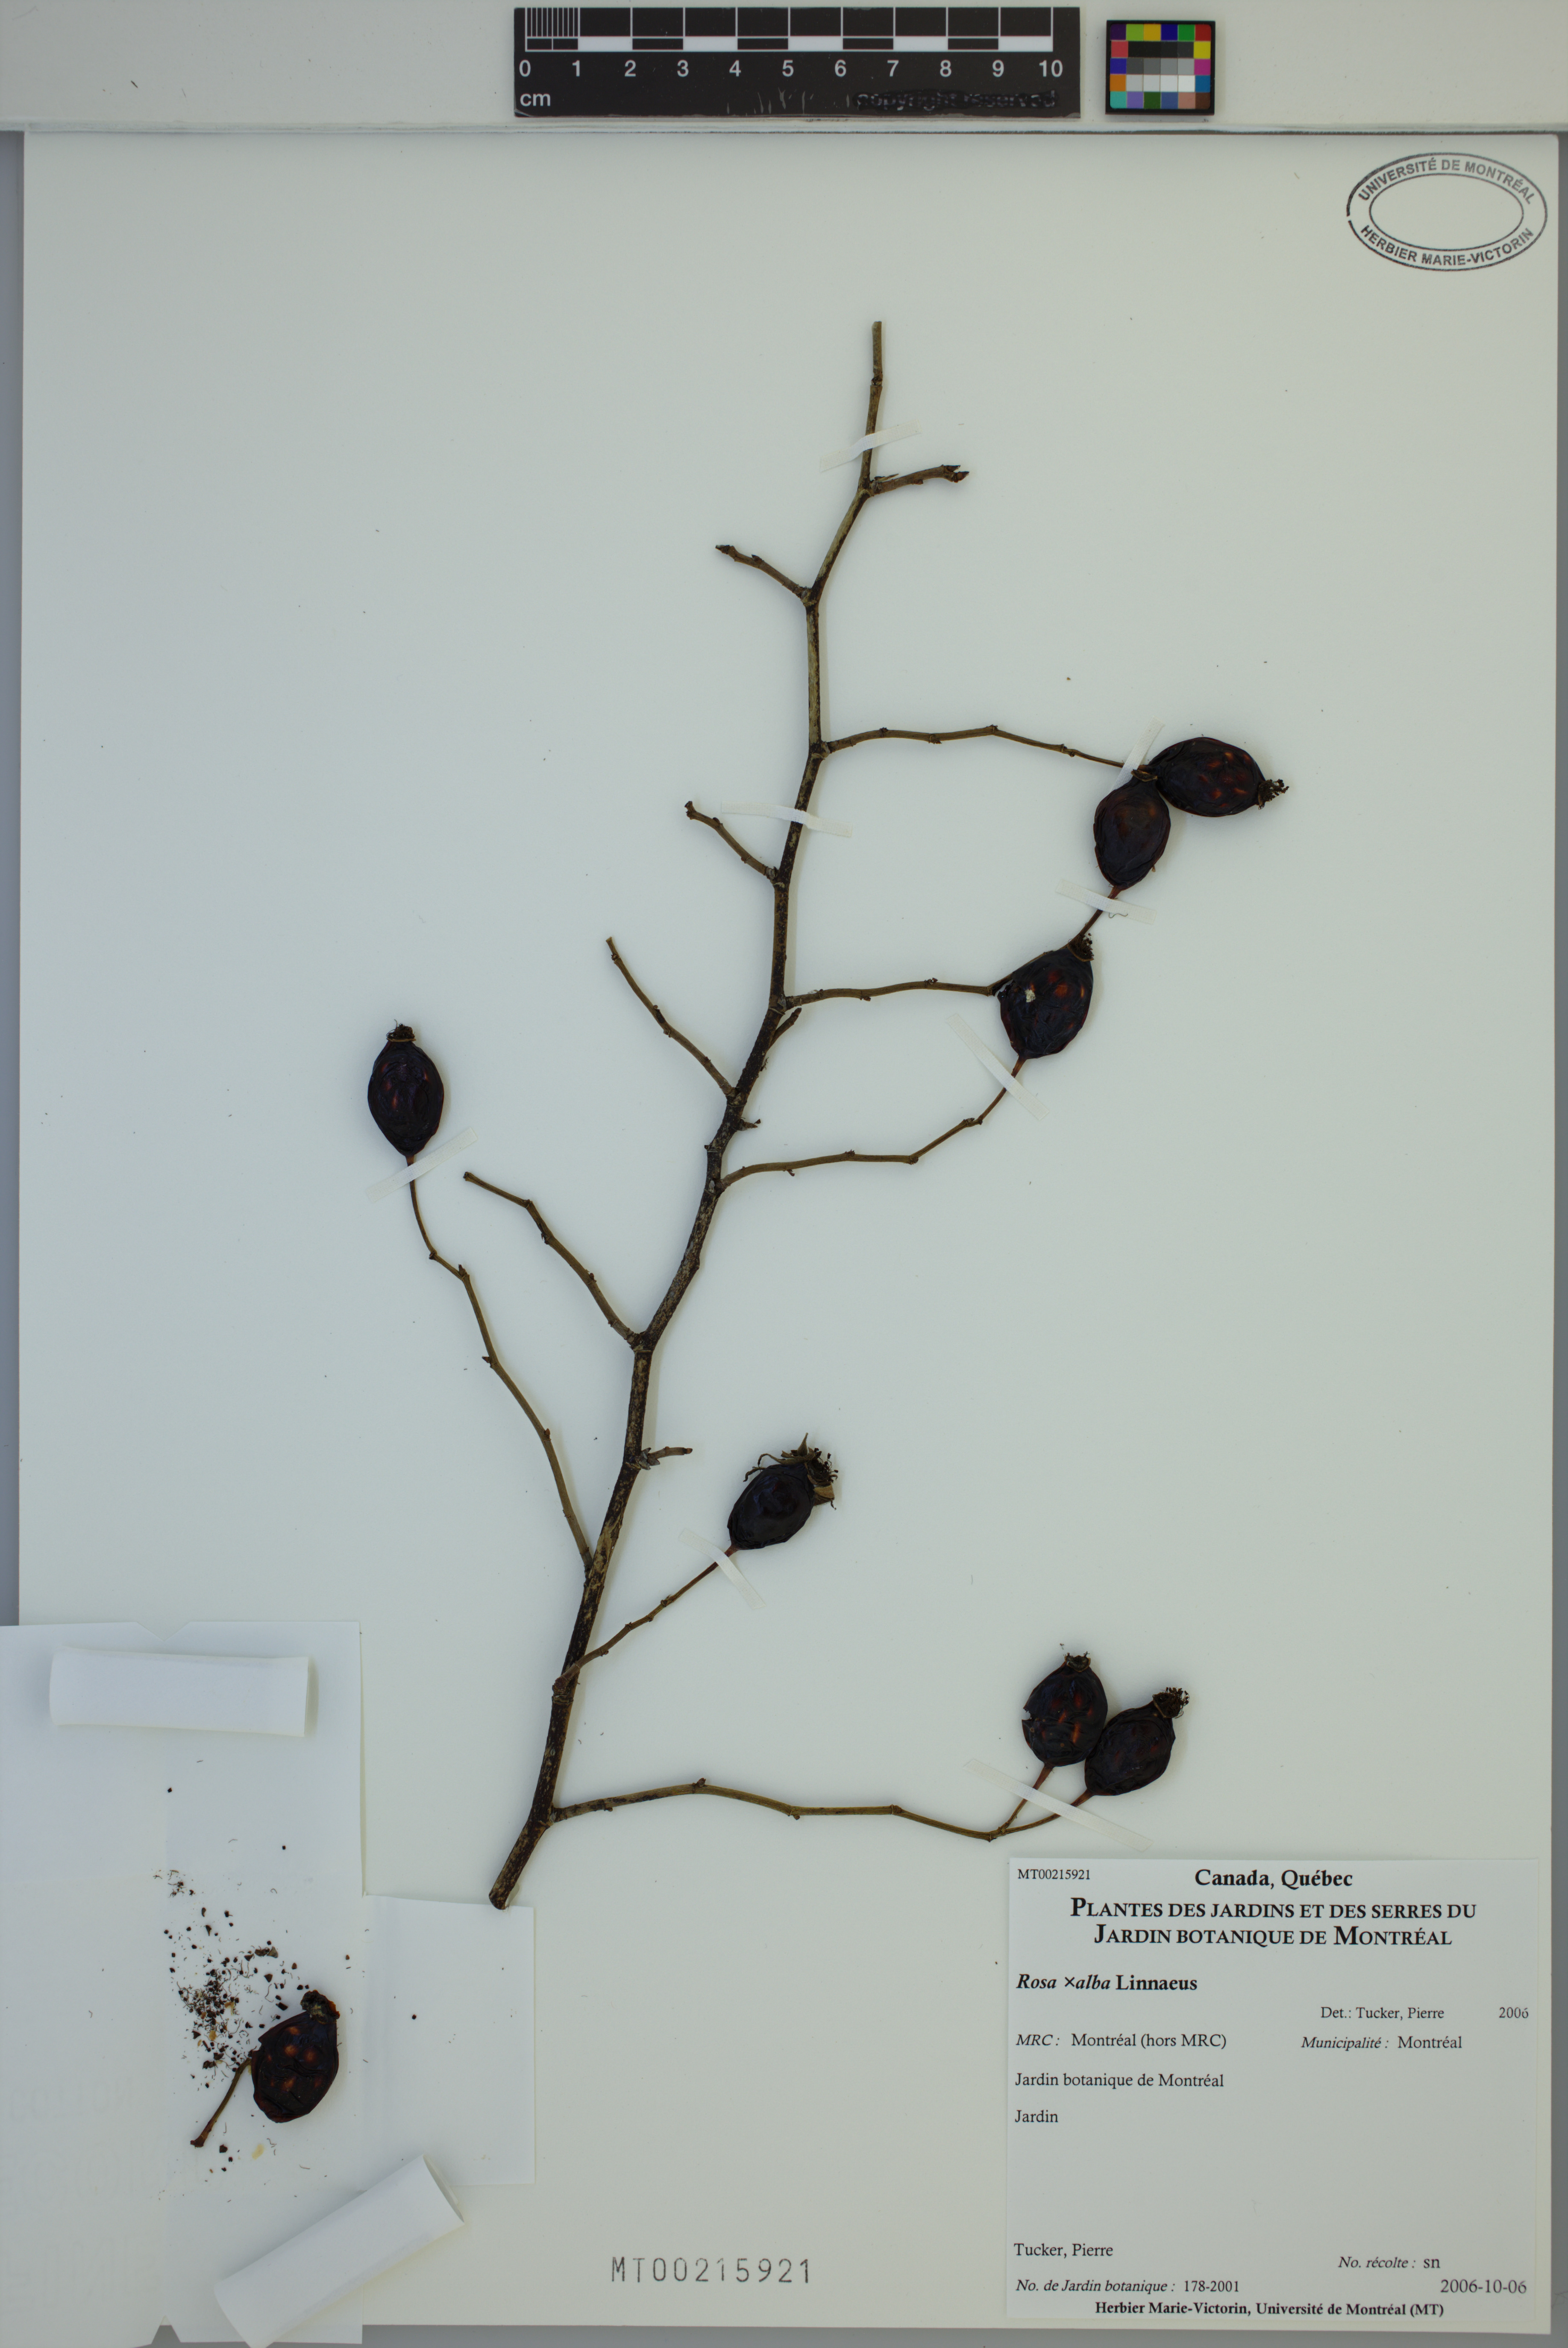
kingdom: Plantae
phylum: Tracheophyta
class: Magnoliopsida
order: Rosales
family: Rosaceae
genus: Rosa
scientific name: Rosa alba
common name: White rose
